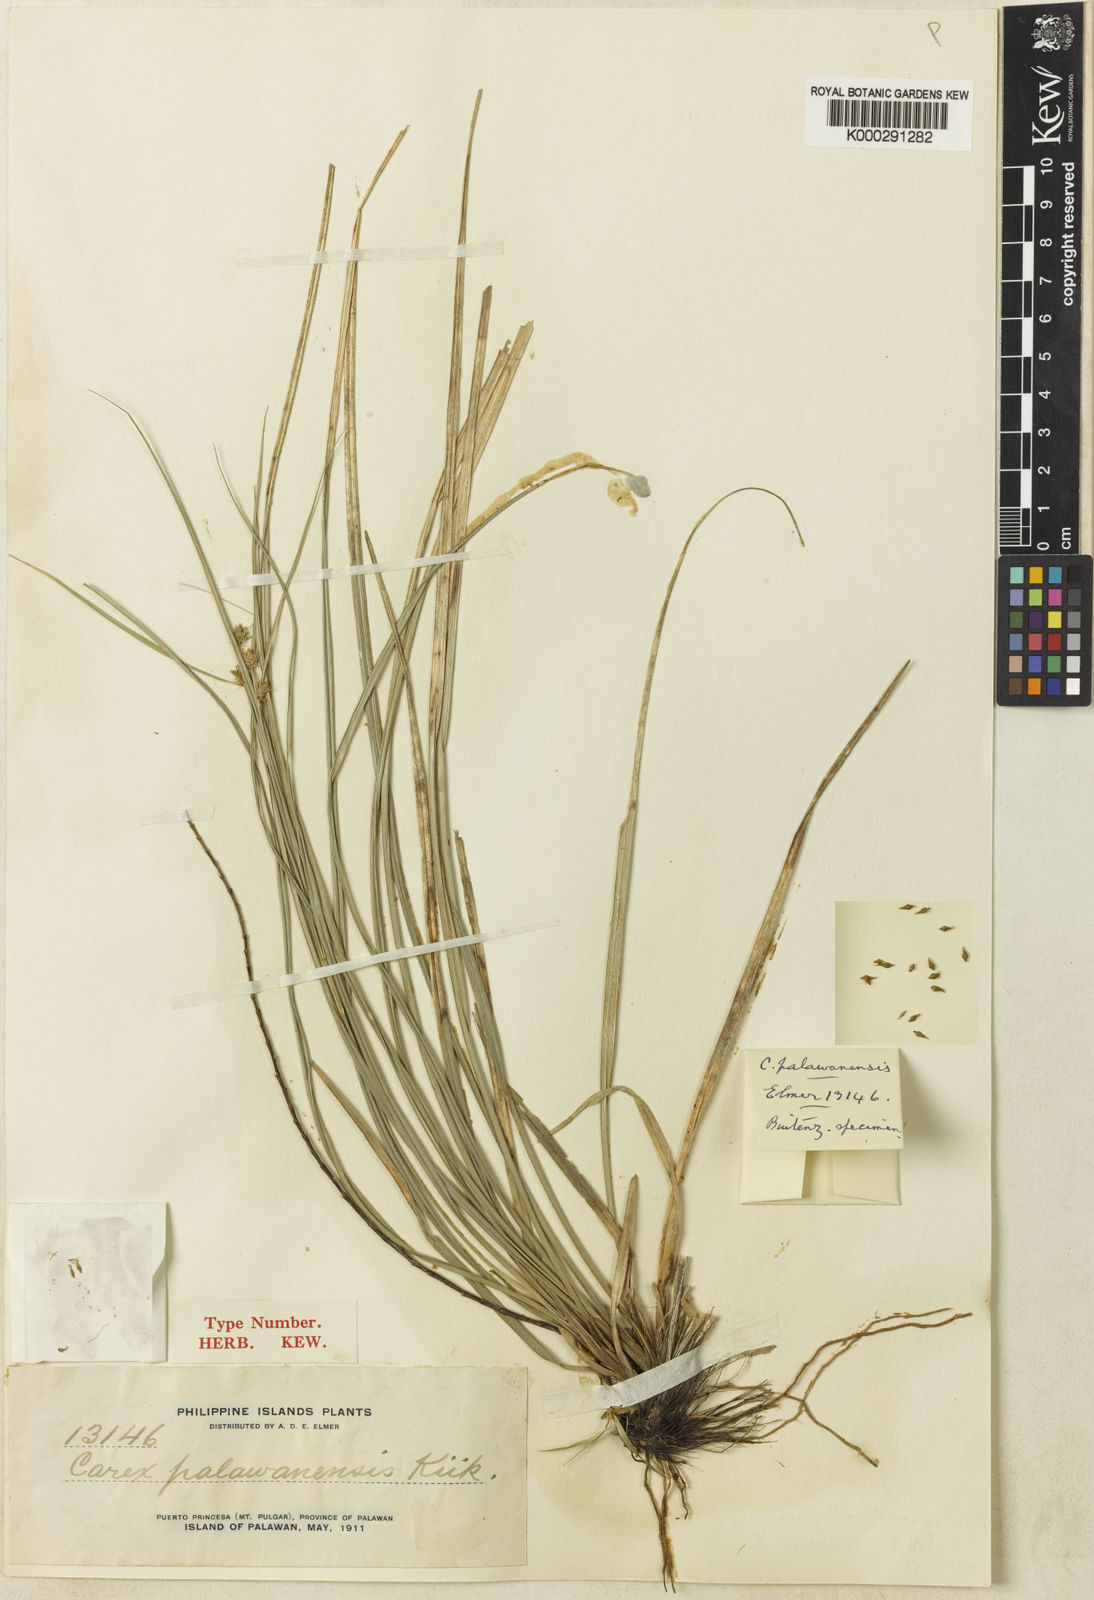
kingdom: Plantae
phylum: Tracheophyta
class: Liliopsida
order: Poales
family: Cyperaceae
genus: Carex
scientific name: Carex
